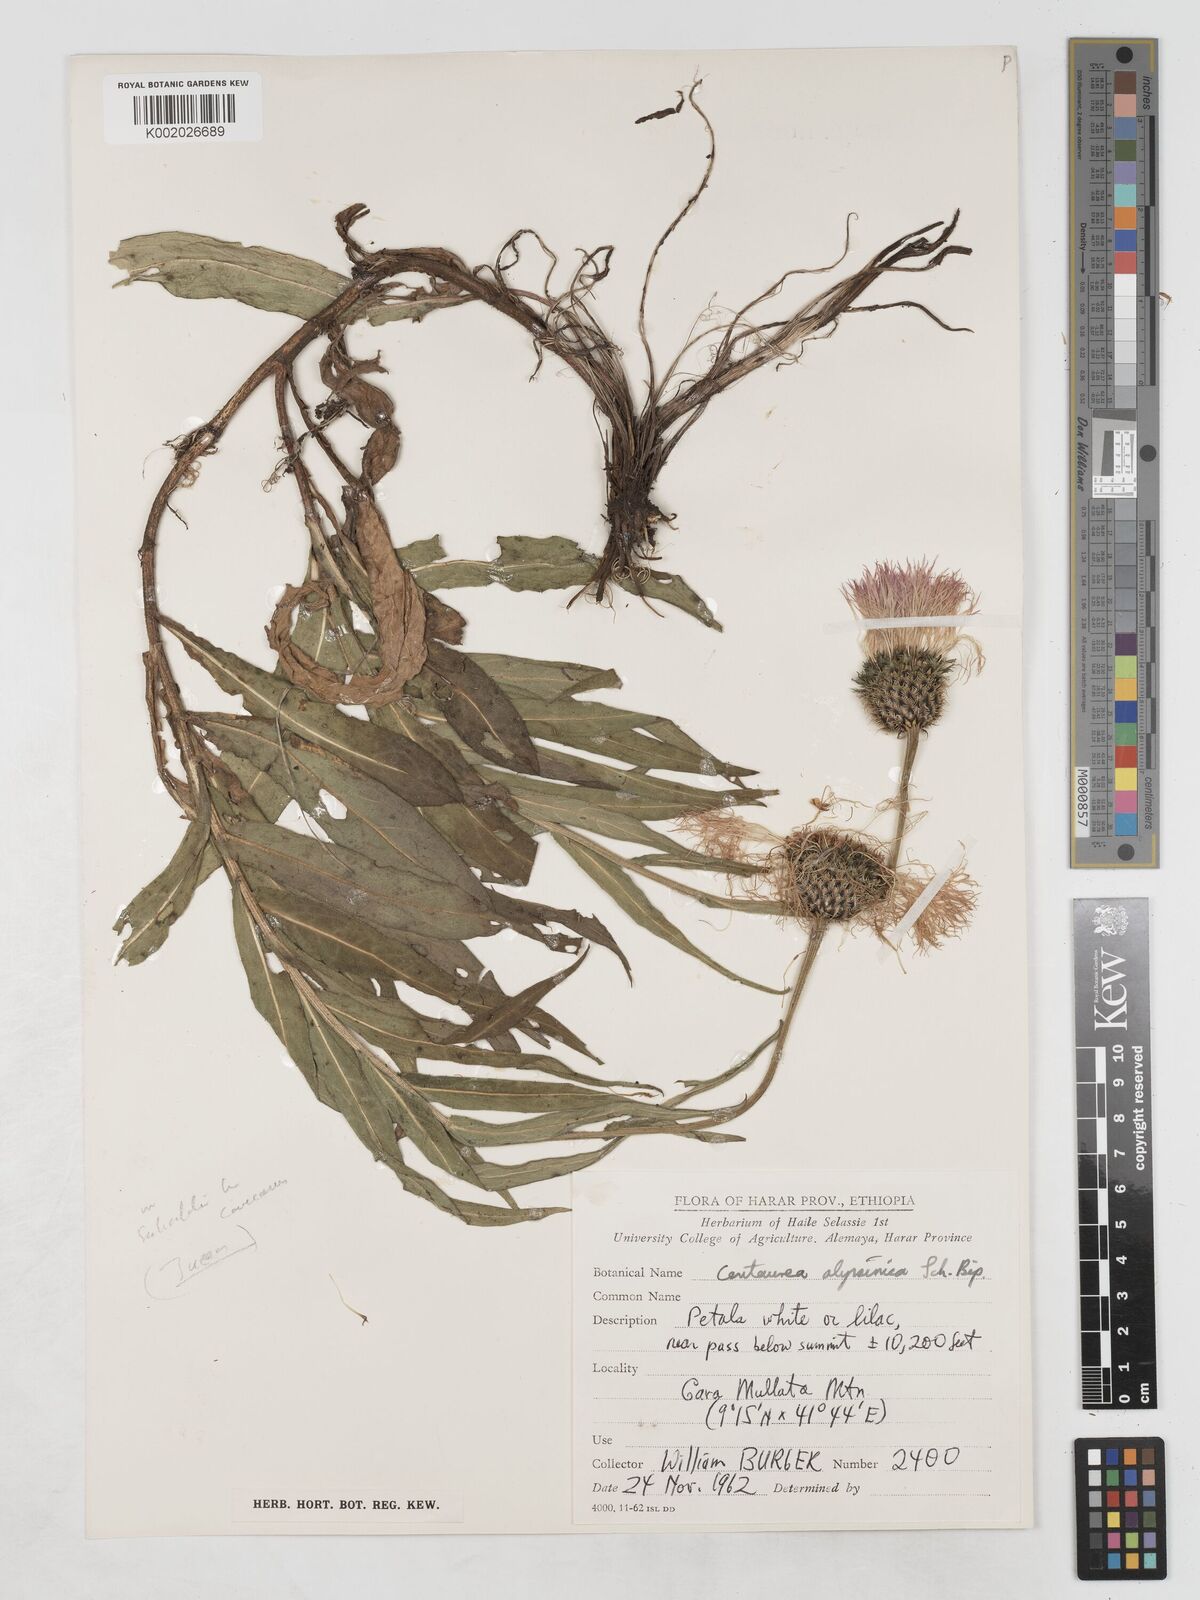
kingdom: Plantae
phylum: Tracheophyta
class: Magnoliopsida
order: Asterales
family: Asteraceae
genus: Plectocephalus
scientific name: Plectocephalus
